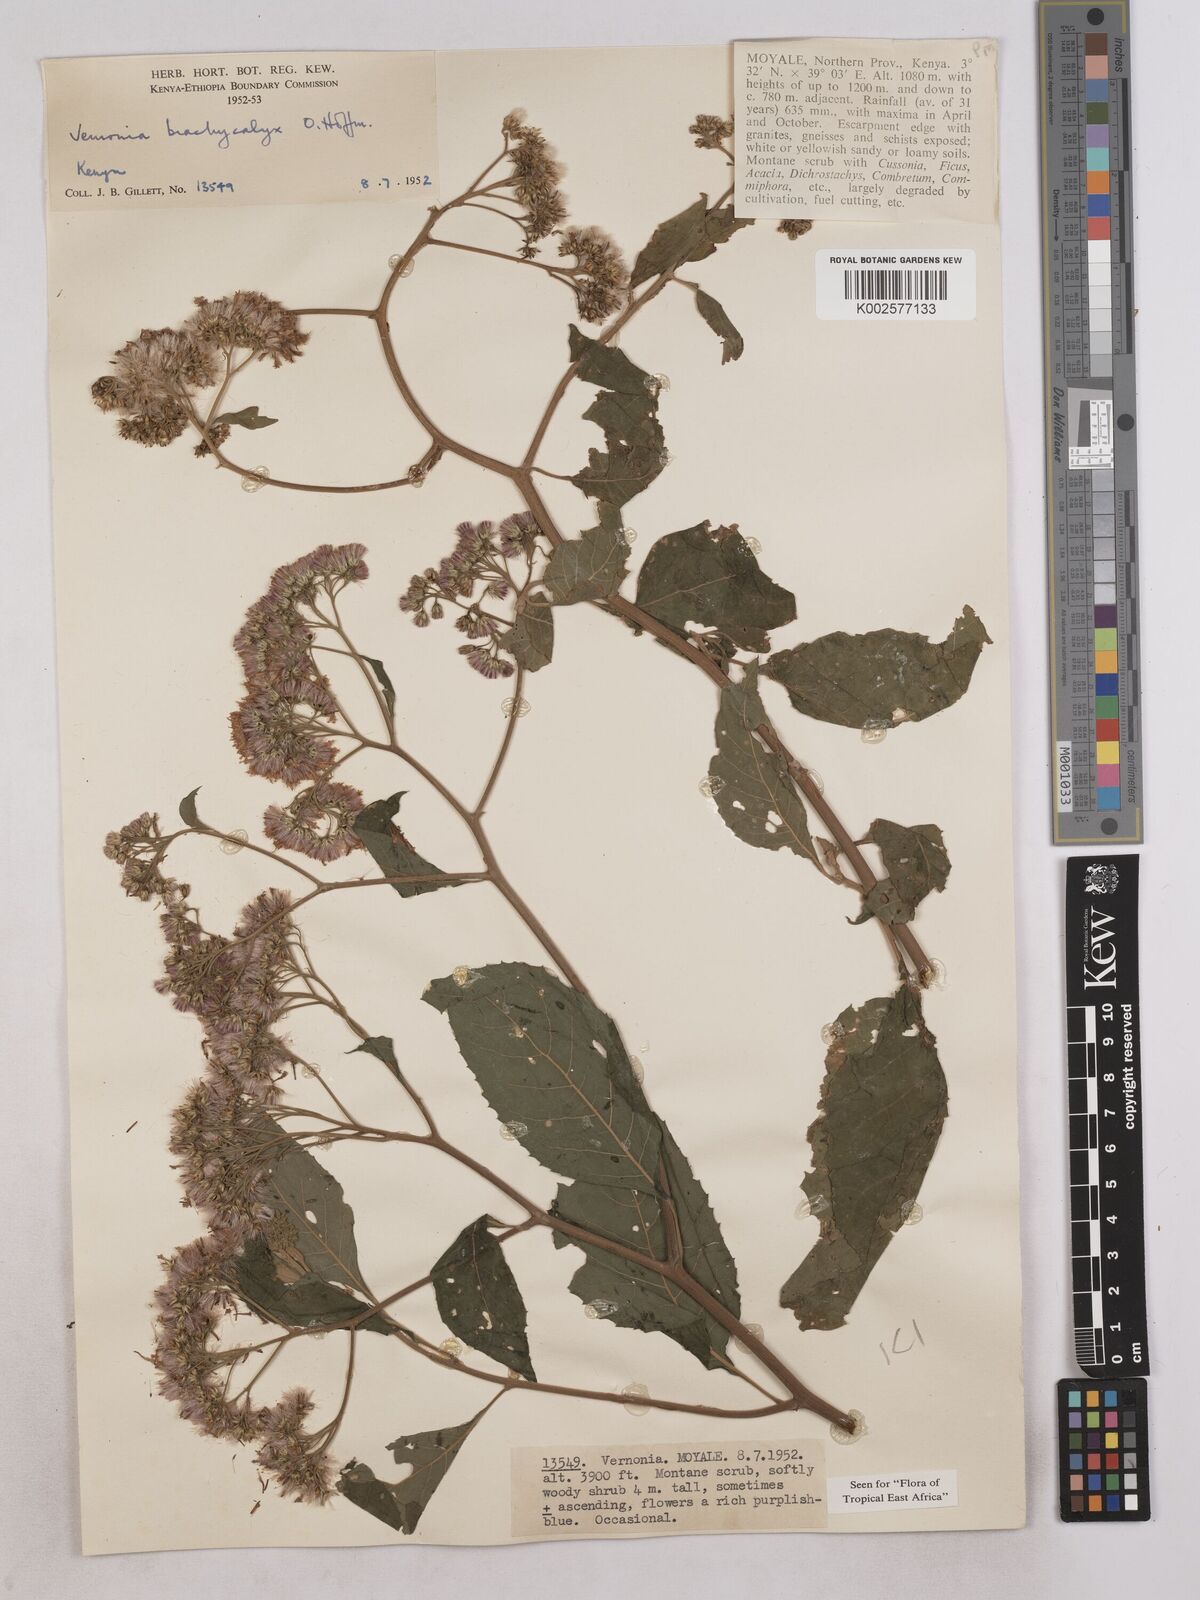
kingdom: Plantae
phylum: Tracheophyta
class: Magnoliopsida
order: Asterales
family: Asteraceae
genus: Hoffmannanthus
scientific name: Hoffmannanthus abbotianus
